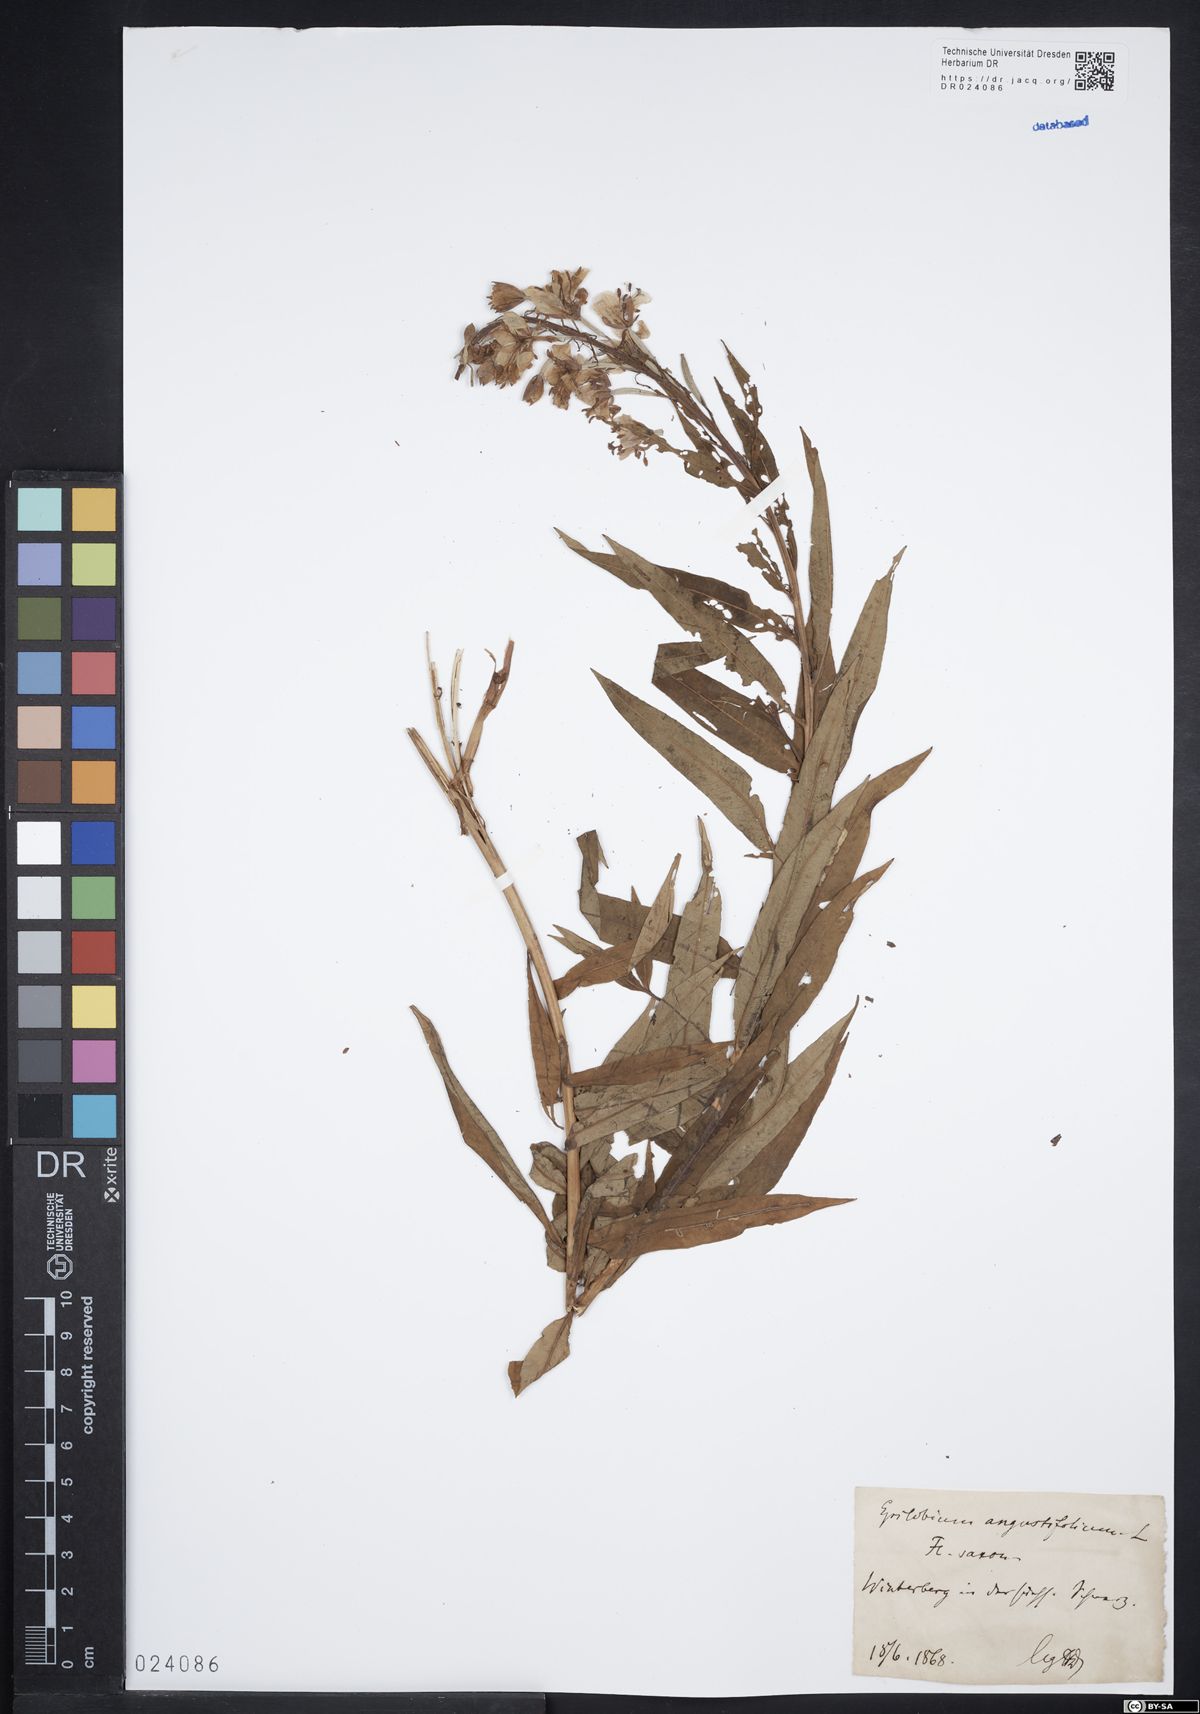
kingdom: Plantae
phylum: Tracheophyta
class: Magnoliopsida
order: Myrtales
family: Onagraceae
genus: Chamaenerion
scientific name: Chamaenerion angustifolium
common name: Fireweed
